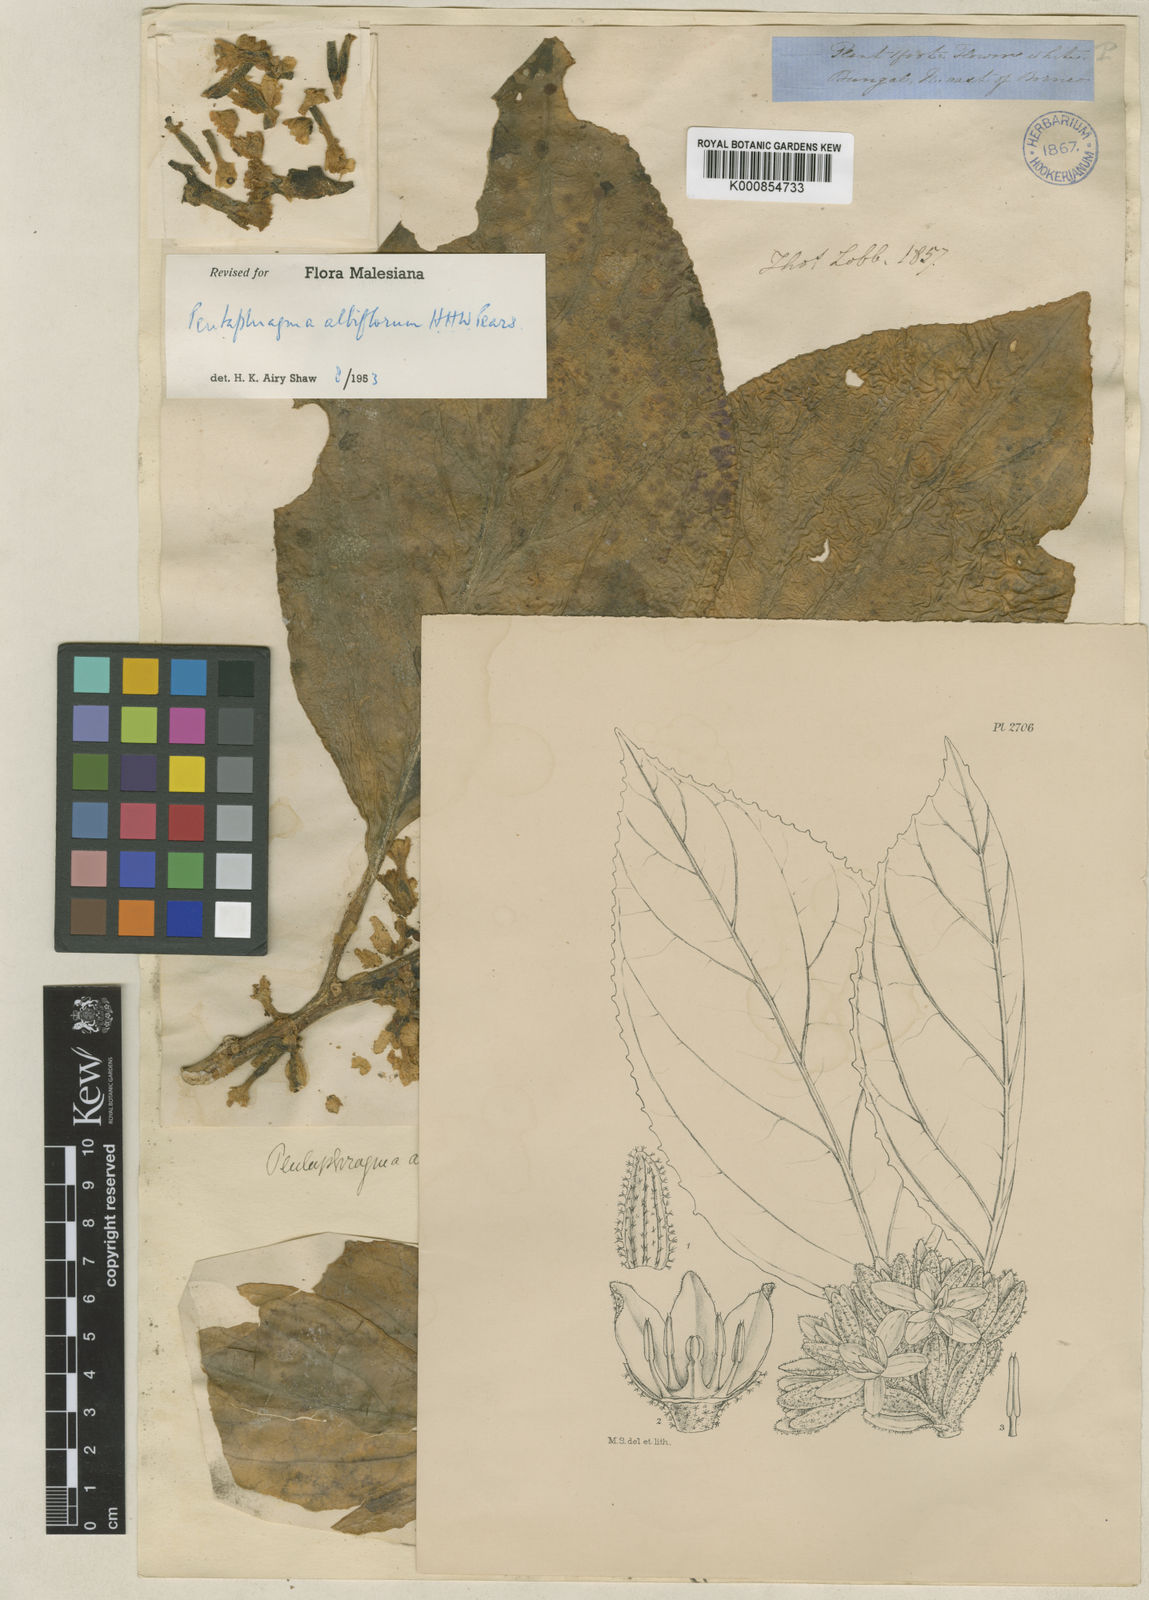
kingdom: Plantae
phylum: Tracheophyta
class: Magnoliopsida
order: Asterales
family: Pentaphragmataceae
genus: Pentaphragma
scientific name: Pentaphragma albiflorum
